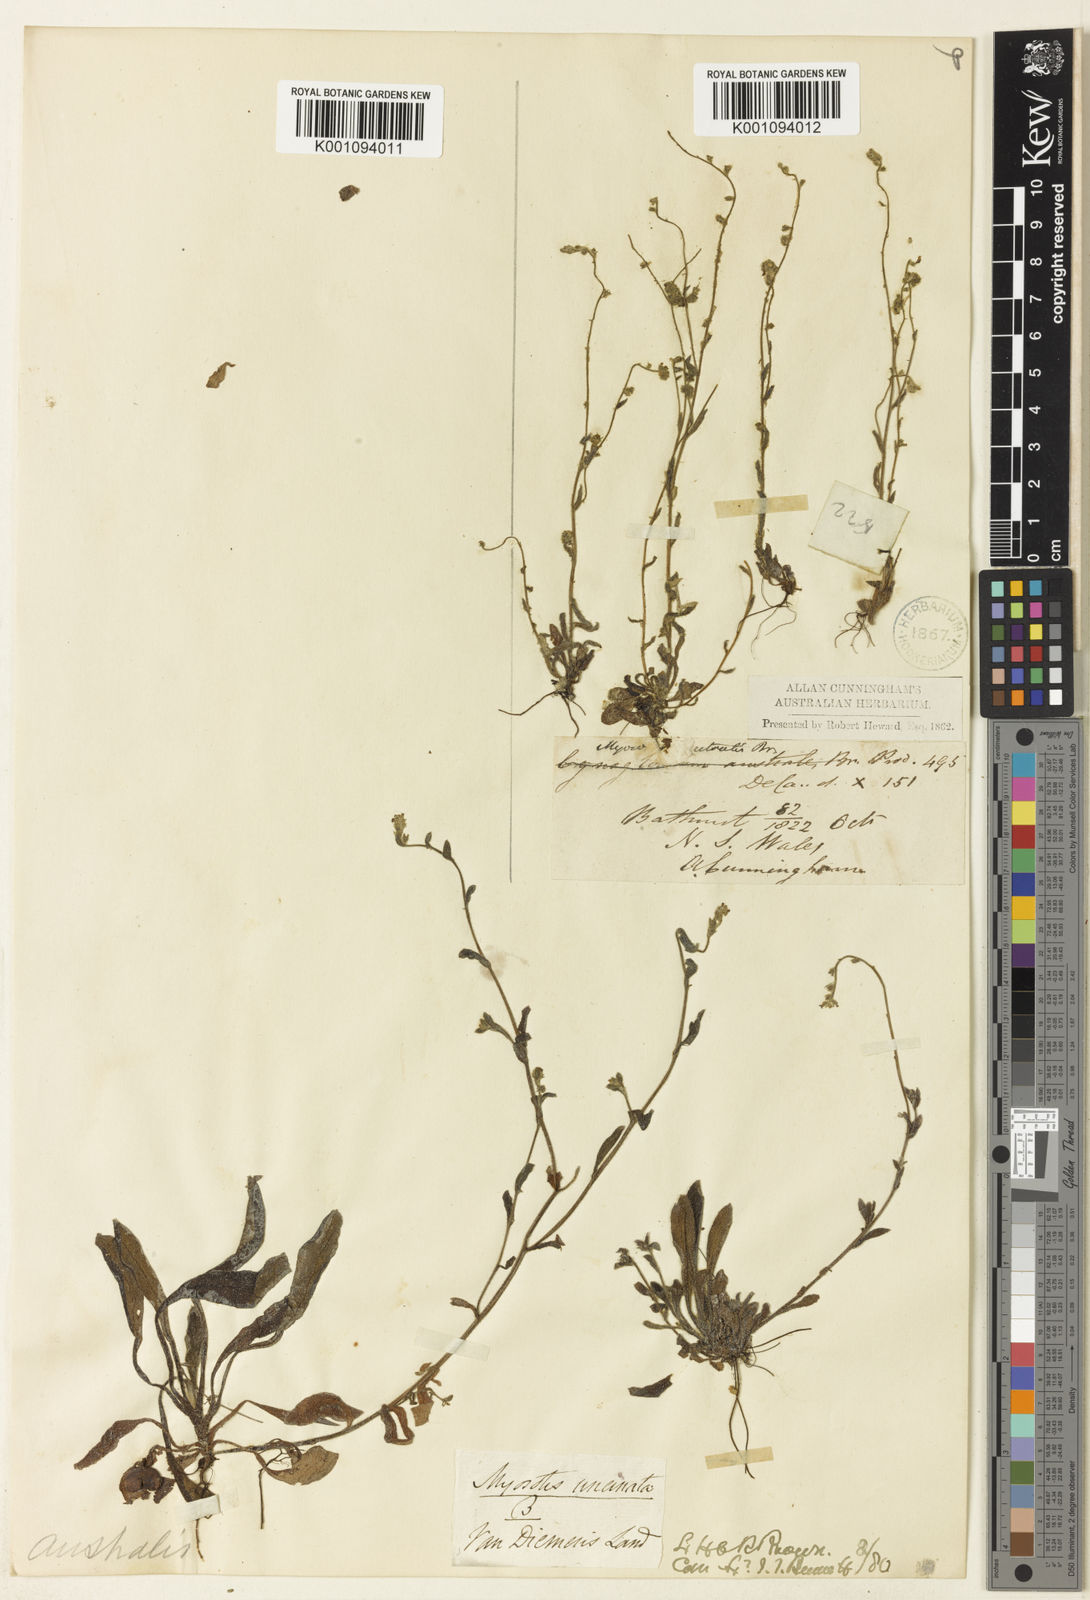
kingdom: Plantae
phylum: Tracheophyta
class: Magnoliopsida
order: Boraginales
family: Boraginaceae
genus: Myosotis
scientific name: Myosotis exarrhena
